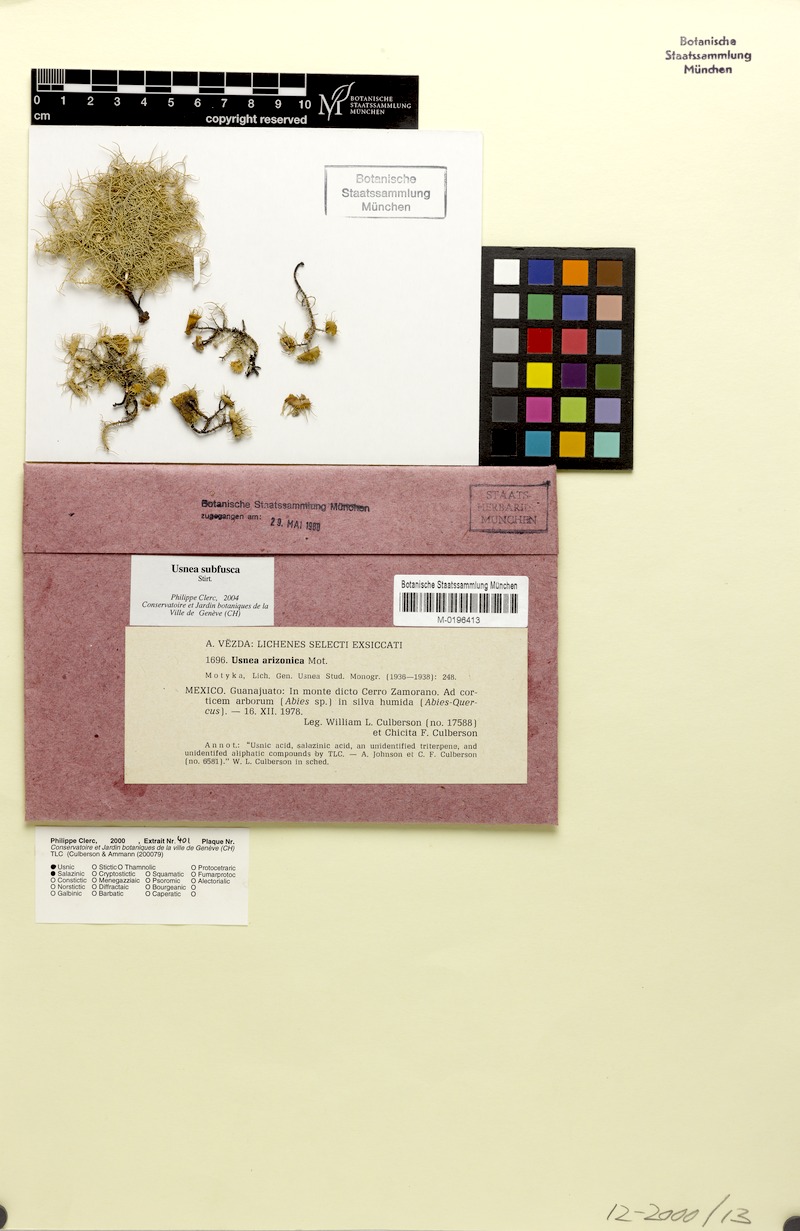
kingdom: Fungi
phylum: Ascomycota
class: Lecanoromycetes
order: Lecanorales
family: Parmeliaceae
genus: Usnea
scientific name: Usnea subfusca
